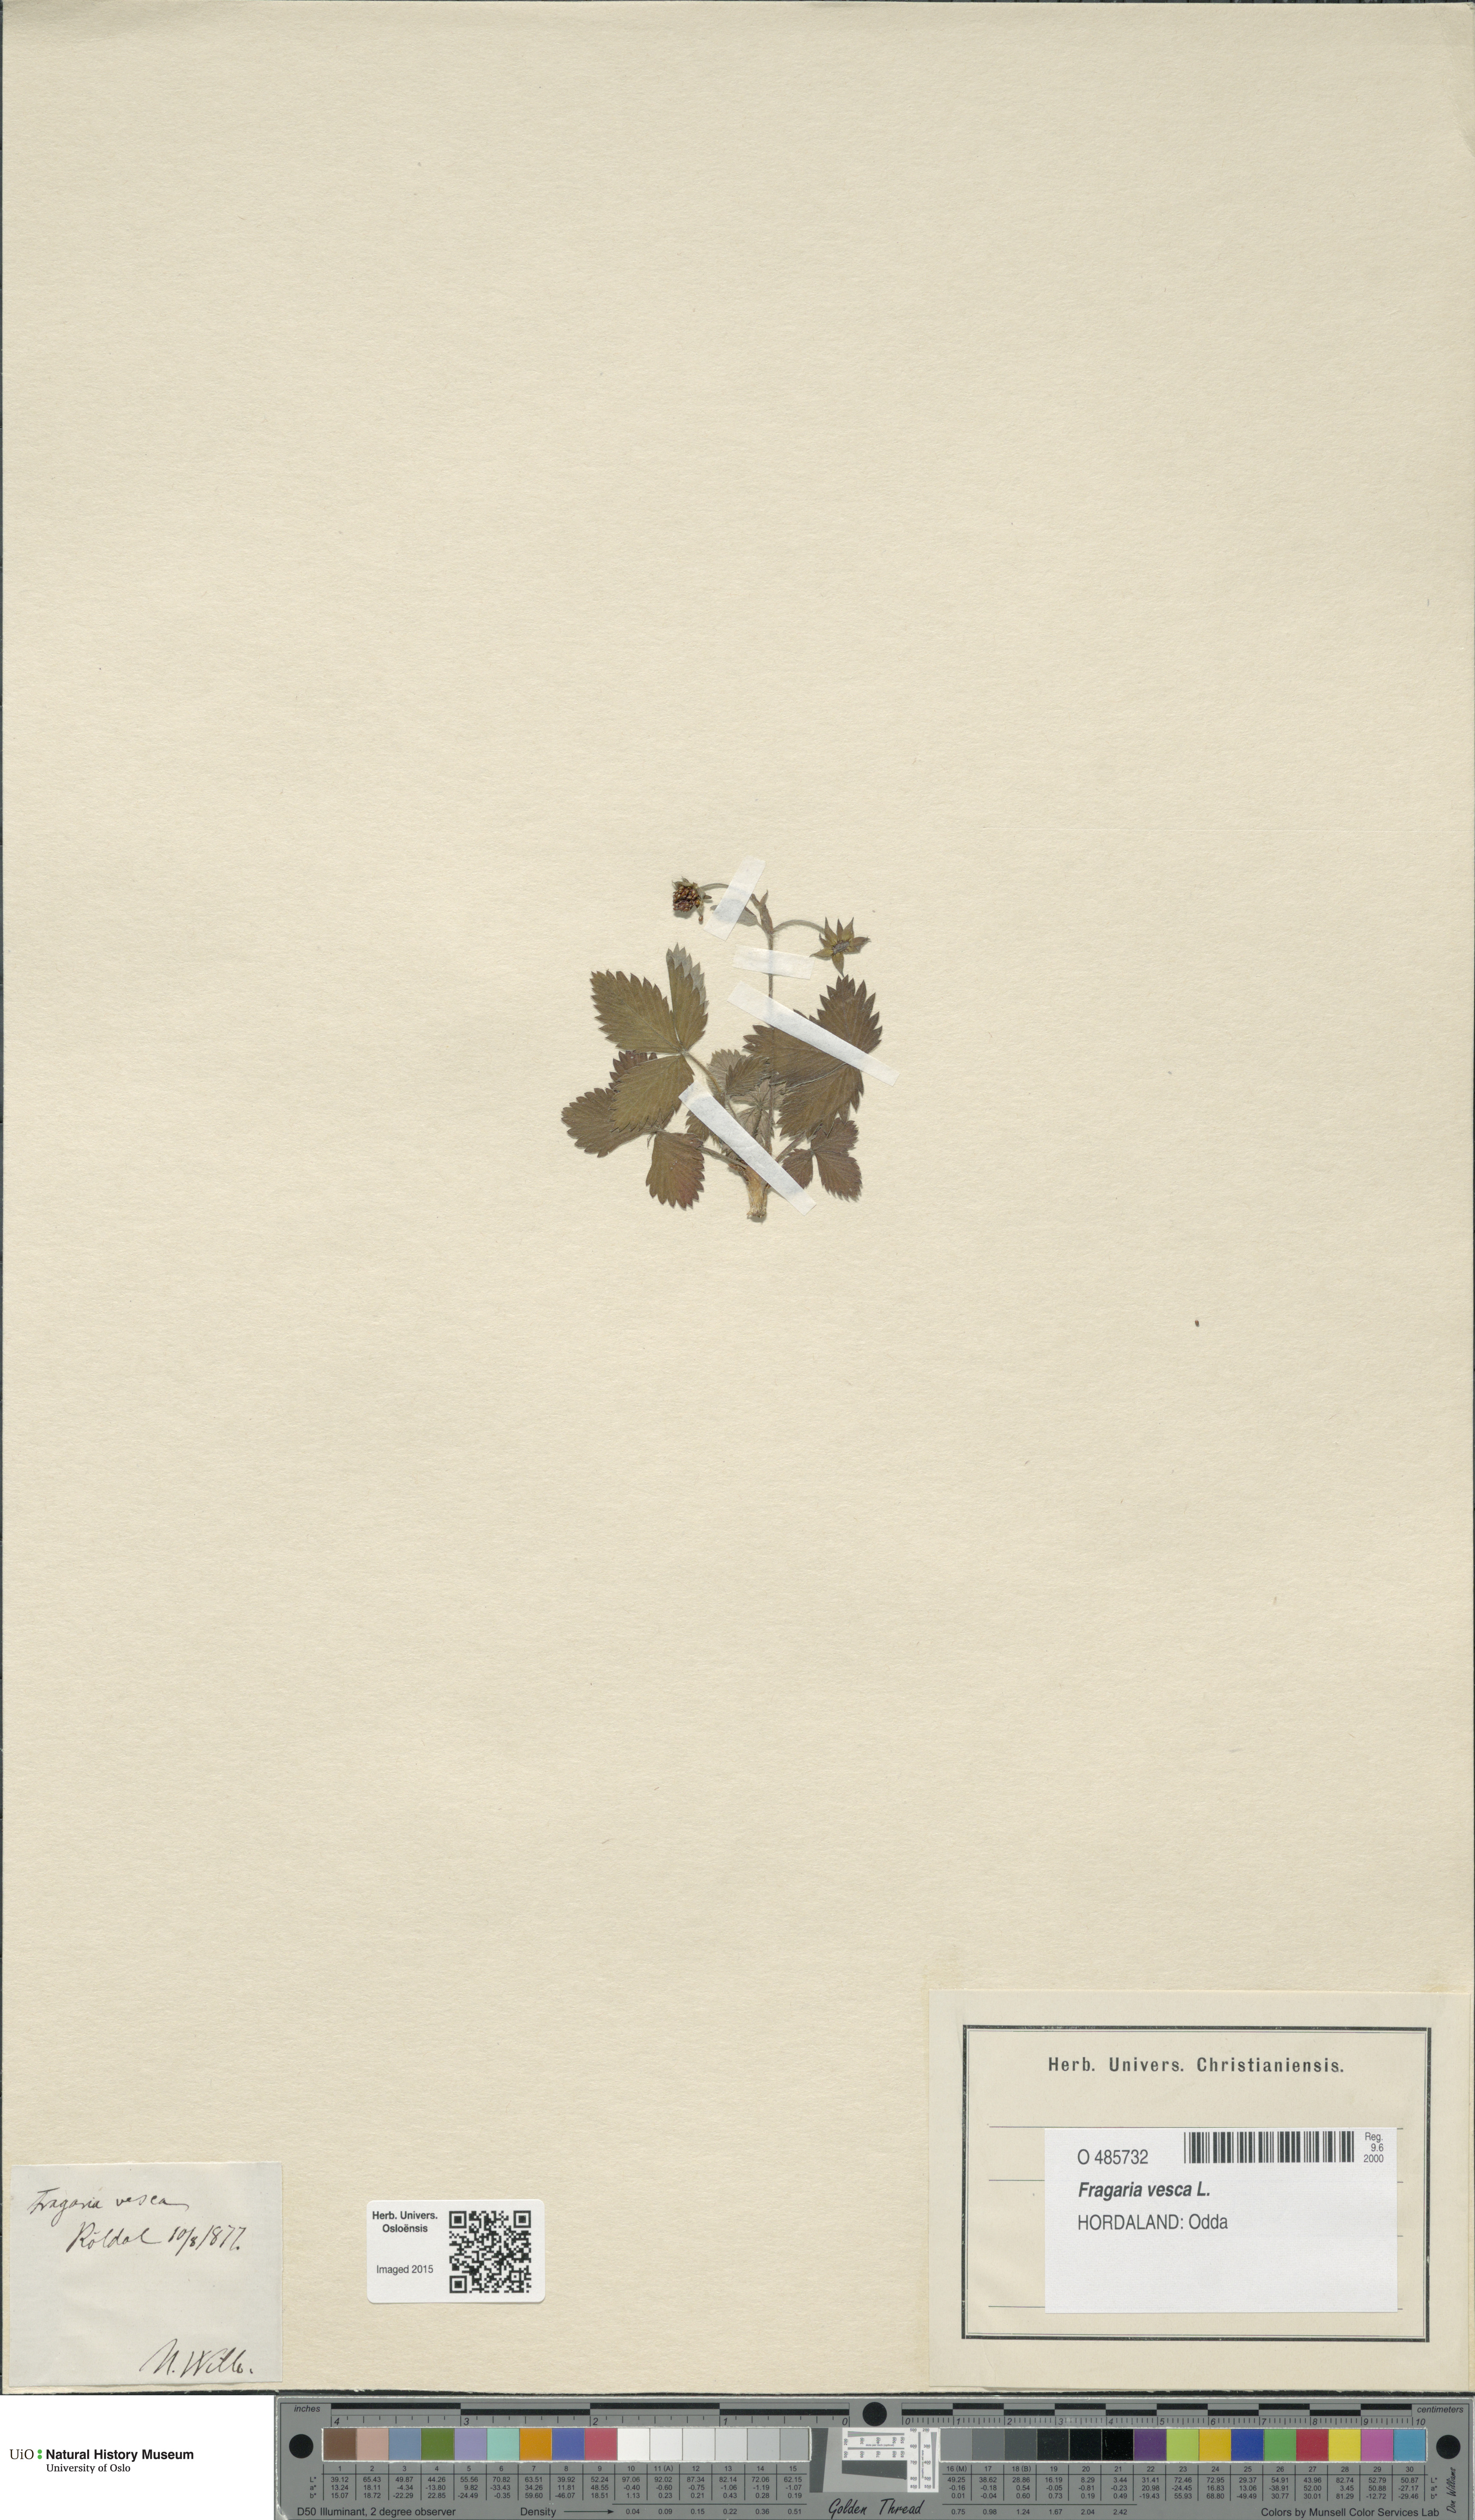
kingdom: Plantae
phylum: Tracheophyta
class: Magnoliopsida
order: Rosales
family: Rosaceae
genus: Fragaria
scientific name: Fragaria vesca
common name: Wild strawberry
